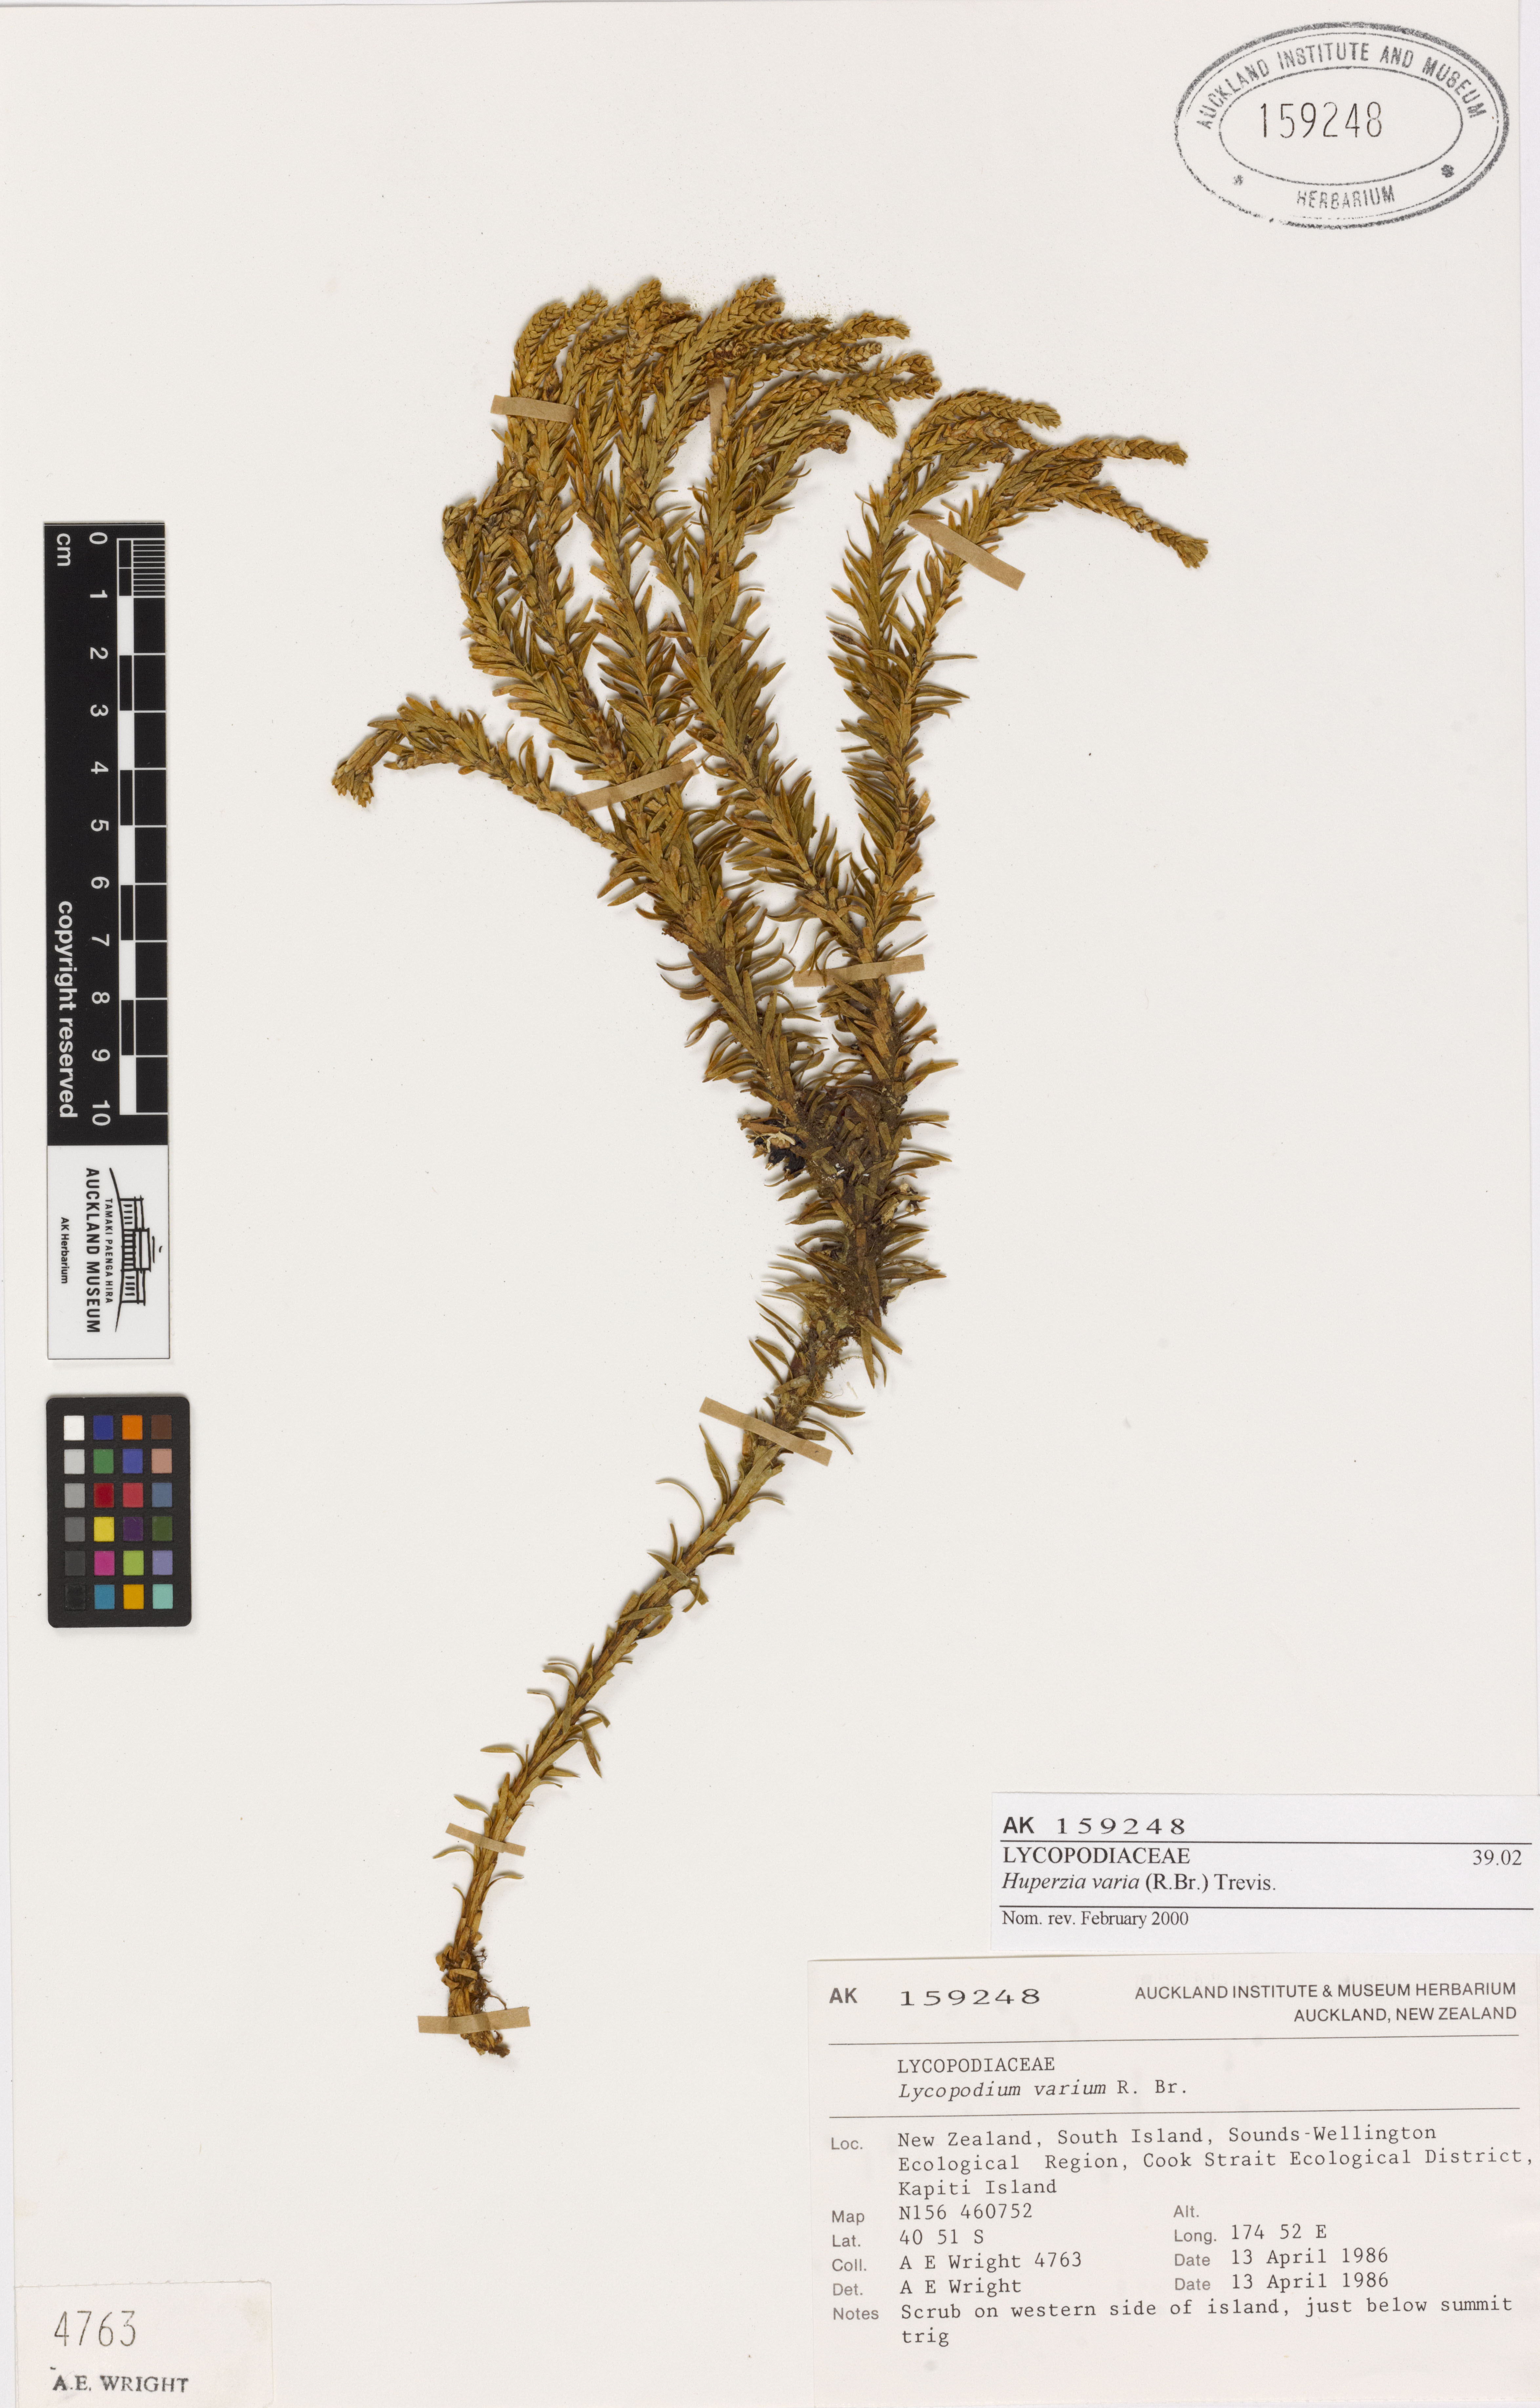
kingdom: Plantae
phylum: Tracheophyta
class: Lycopodiopsida
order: Lycopodiales
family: Lycopodiaceae
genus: Phlegmariurus
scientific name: Phlegmariurus varius
